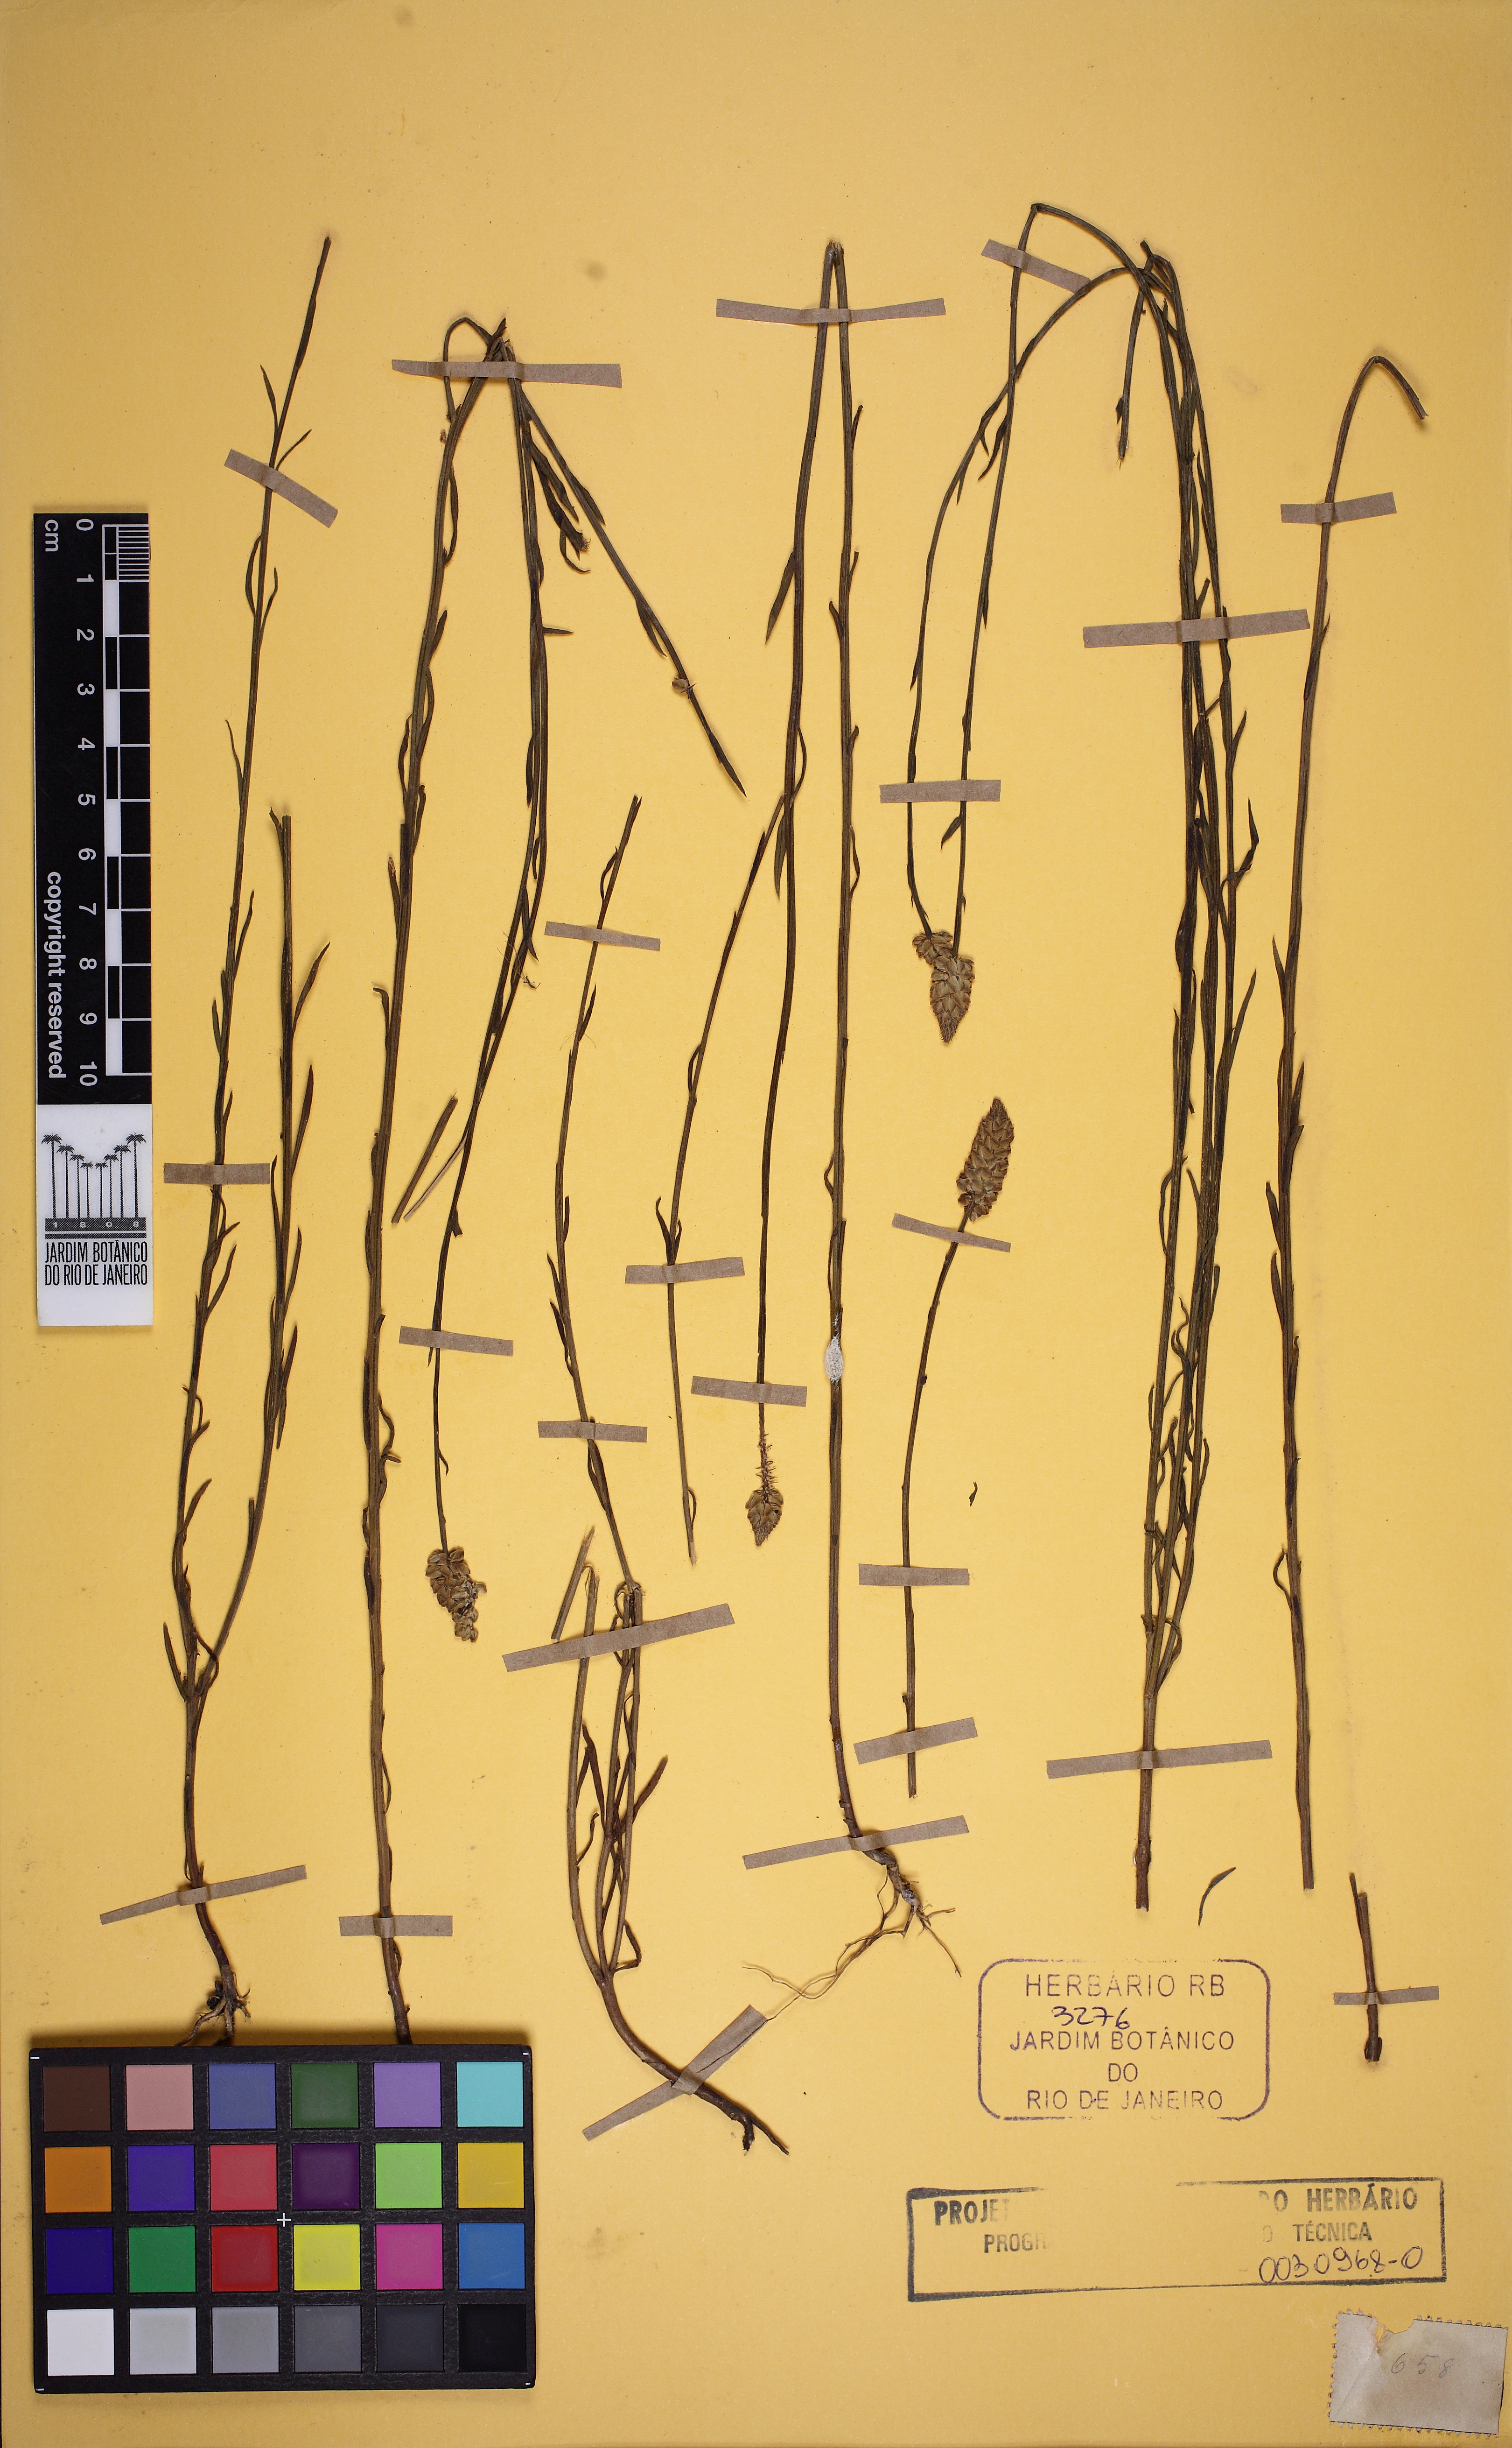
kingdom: Plantae
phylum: Tracheophyta
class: Magnoliopsida
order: Fabales
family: Polygalaceae
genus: Polygala
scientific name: Polygala hygrophila
